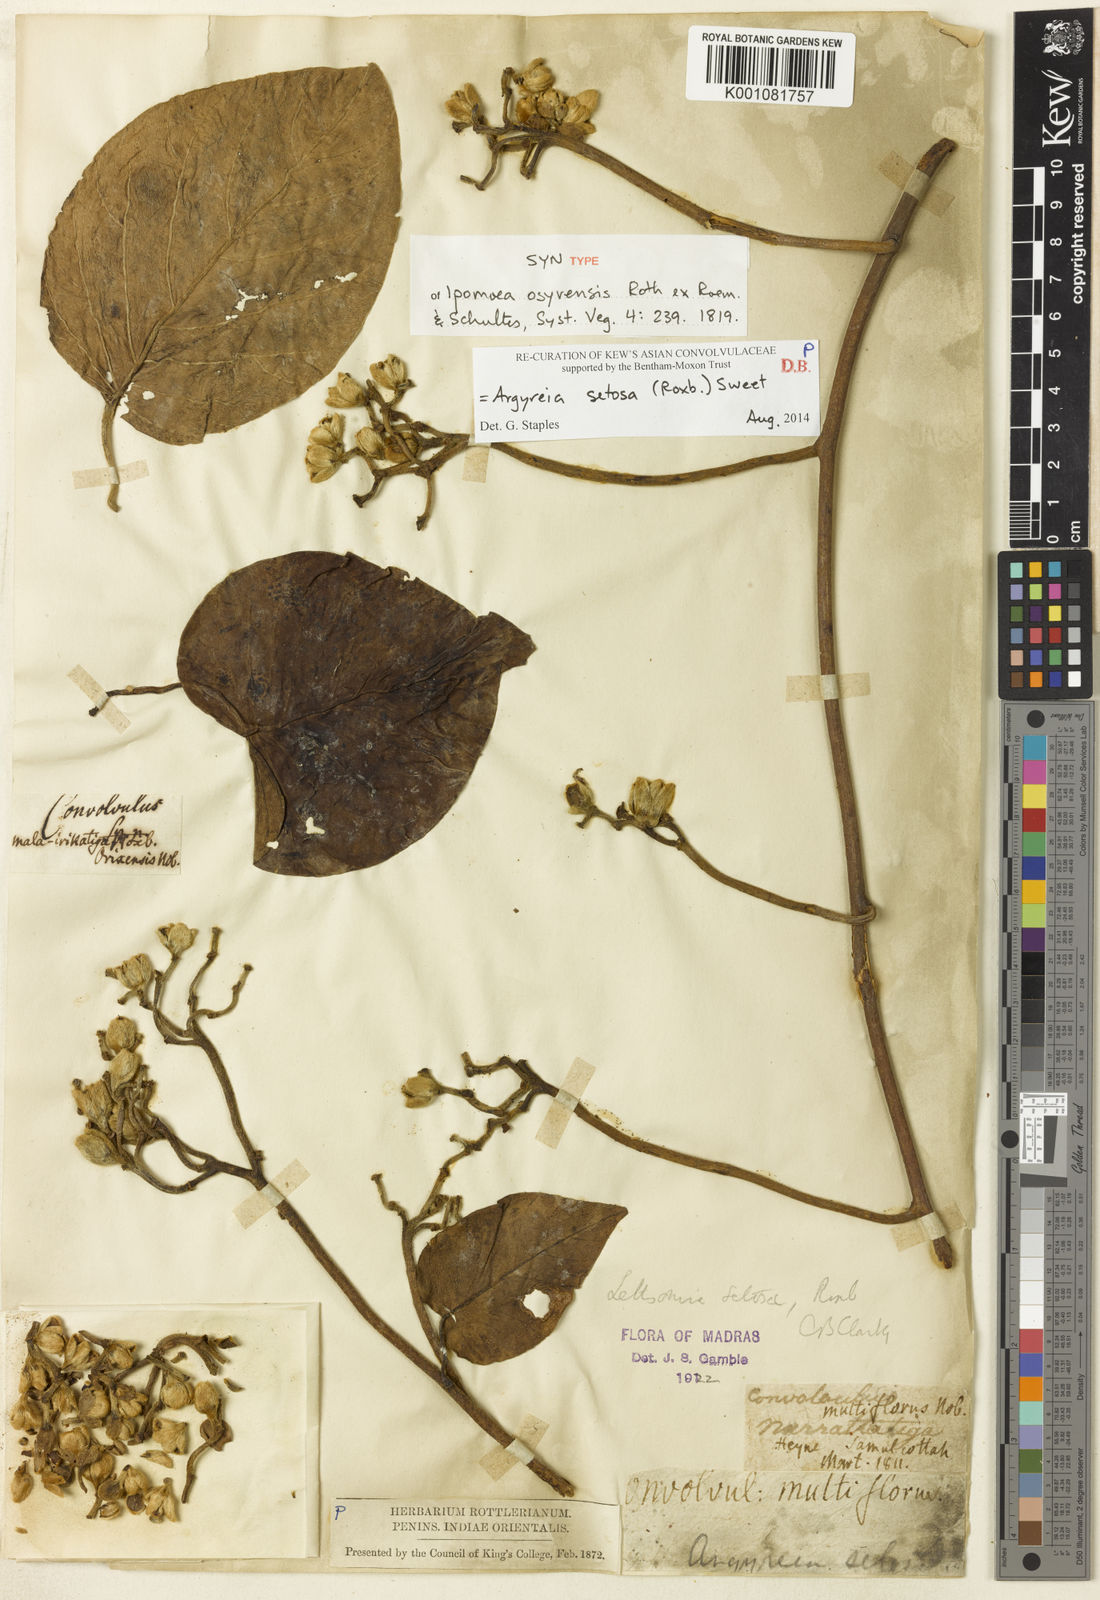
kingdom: Plantae
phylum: Tracheophyta
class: Magnoliopsida
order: Solanales
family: Convolvulaceae
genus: Argyreia
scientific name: Argyreia
